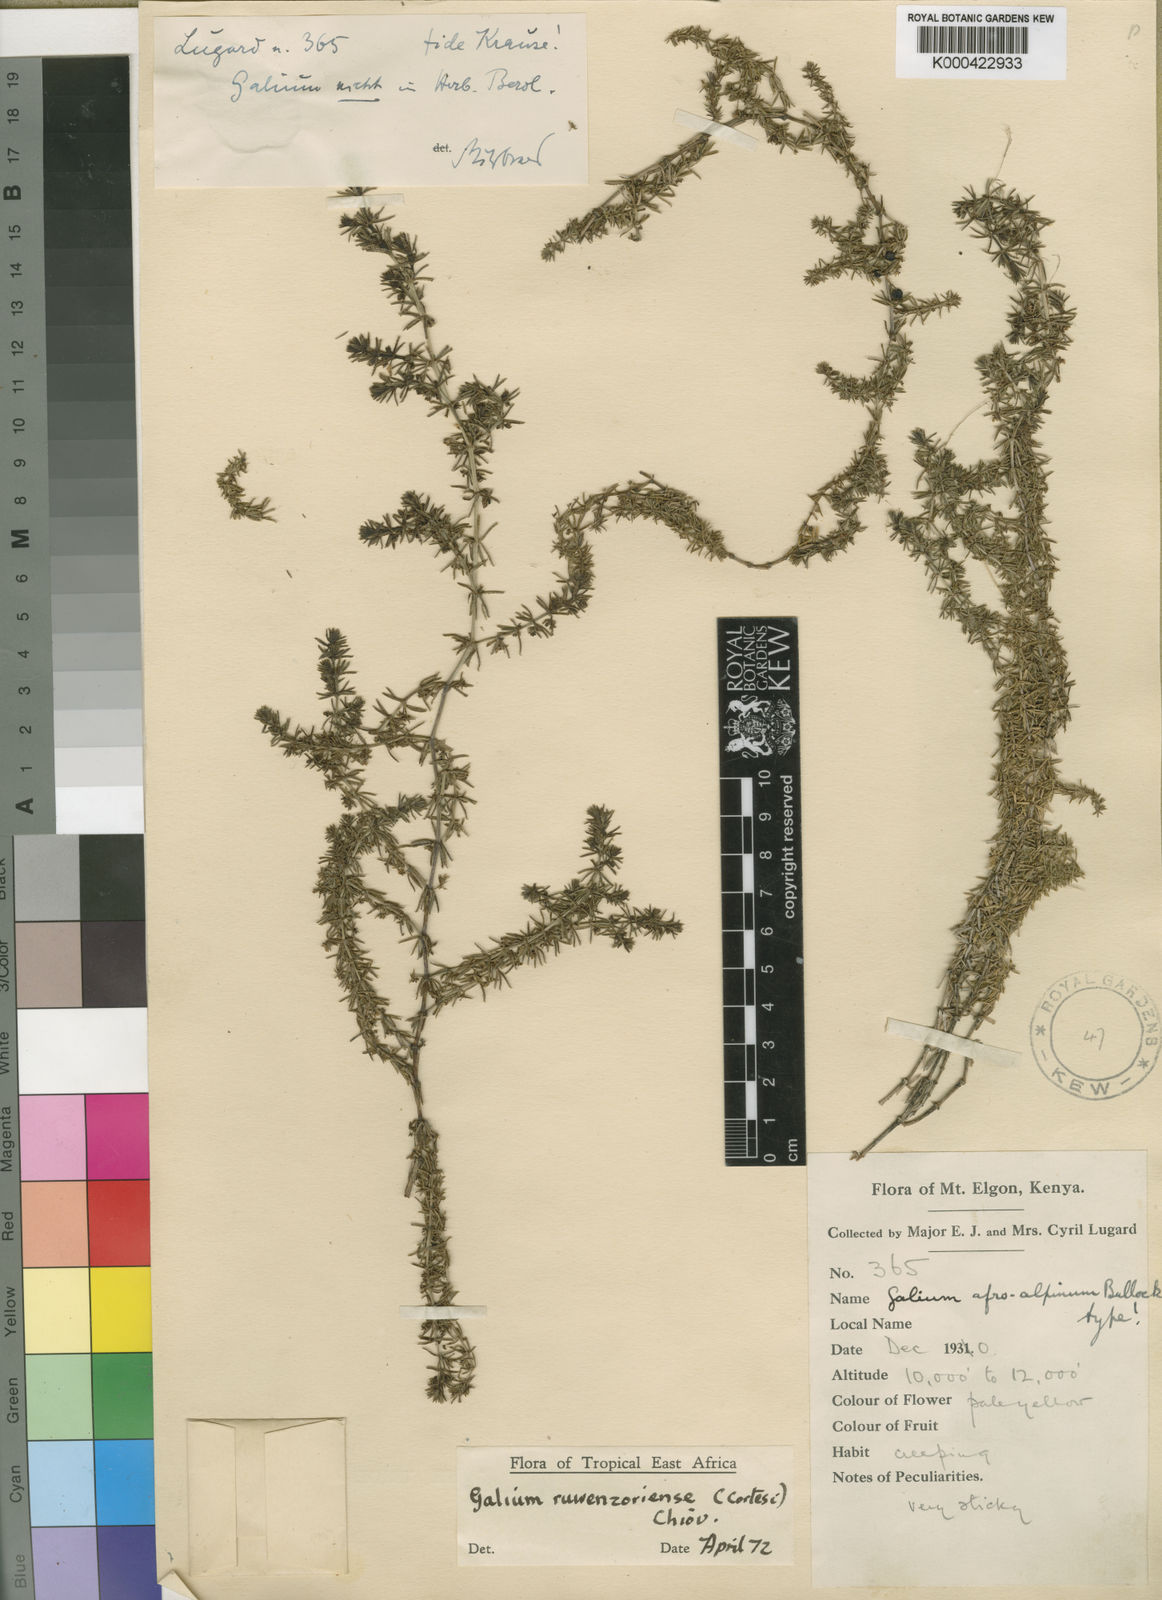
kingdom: Plantae
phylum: Tracheophyta
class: Magnoliopsida
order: Gentianales
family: Rubiaceae
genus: Galium
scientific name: Galium tanganyikense
